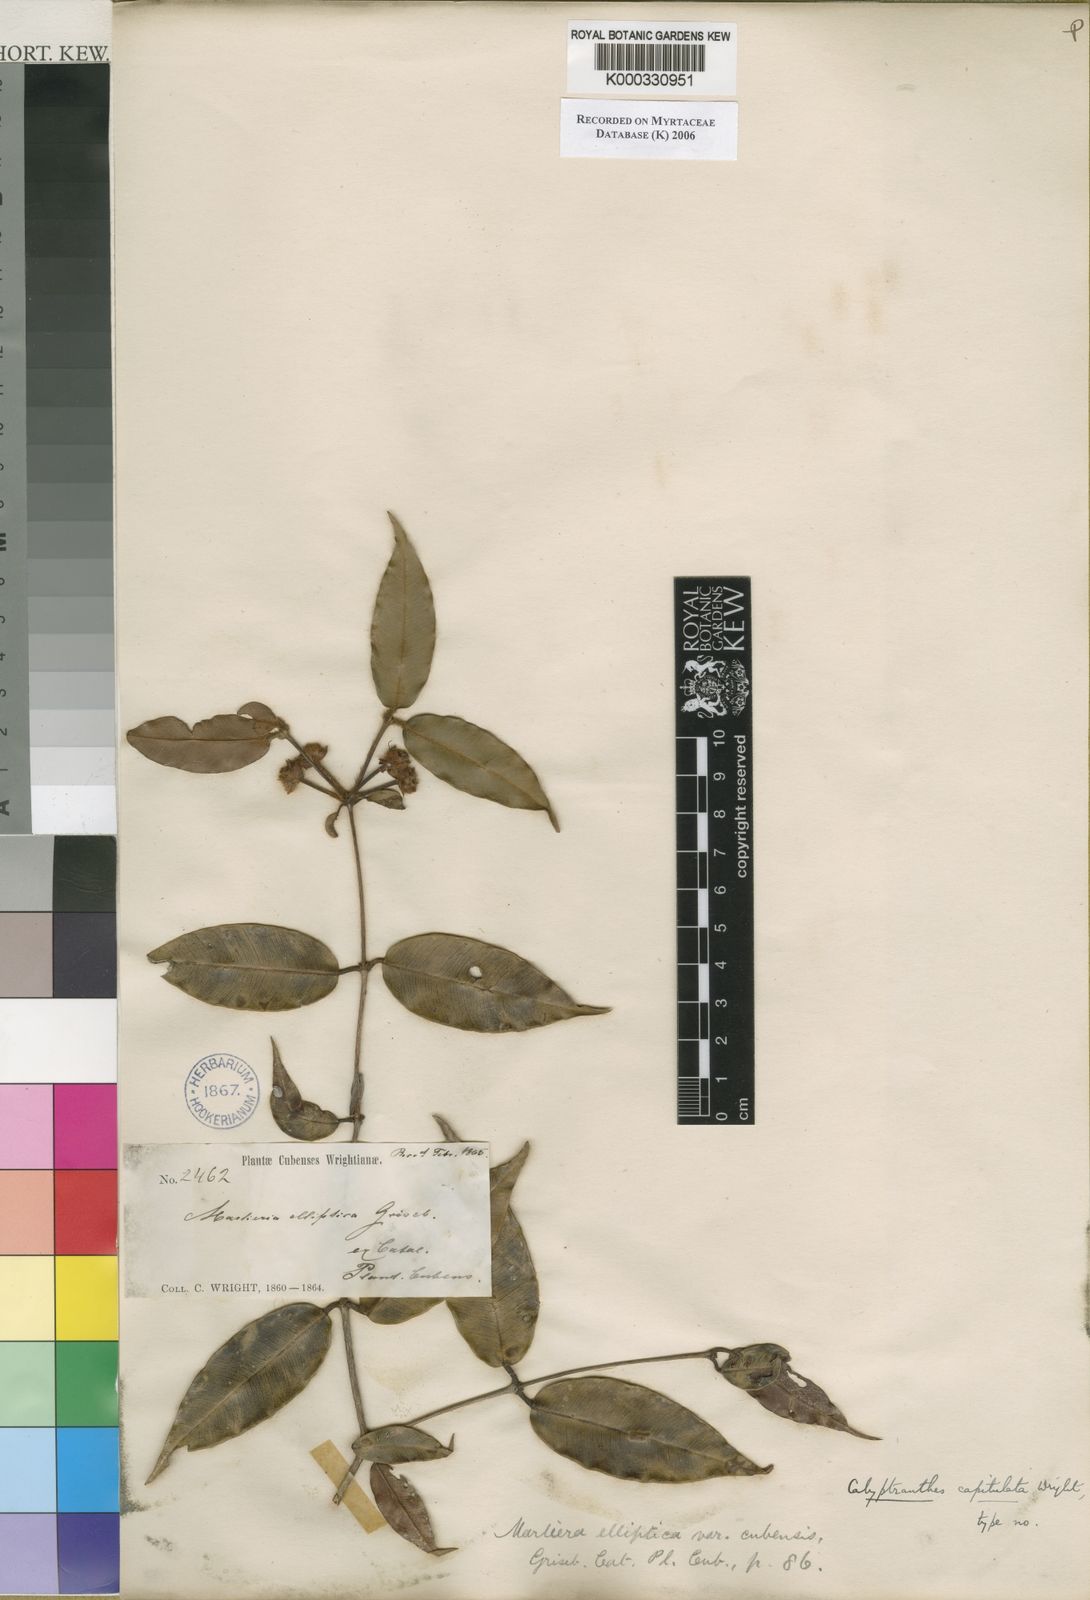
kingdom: Plantae
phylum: Tracheophyta
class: Magnoliopsida
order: Myrtales
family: Myrtaceae
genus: Calyptranthes
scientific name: Calyptranthes
